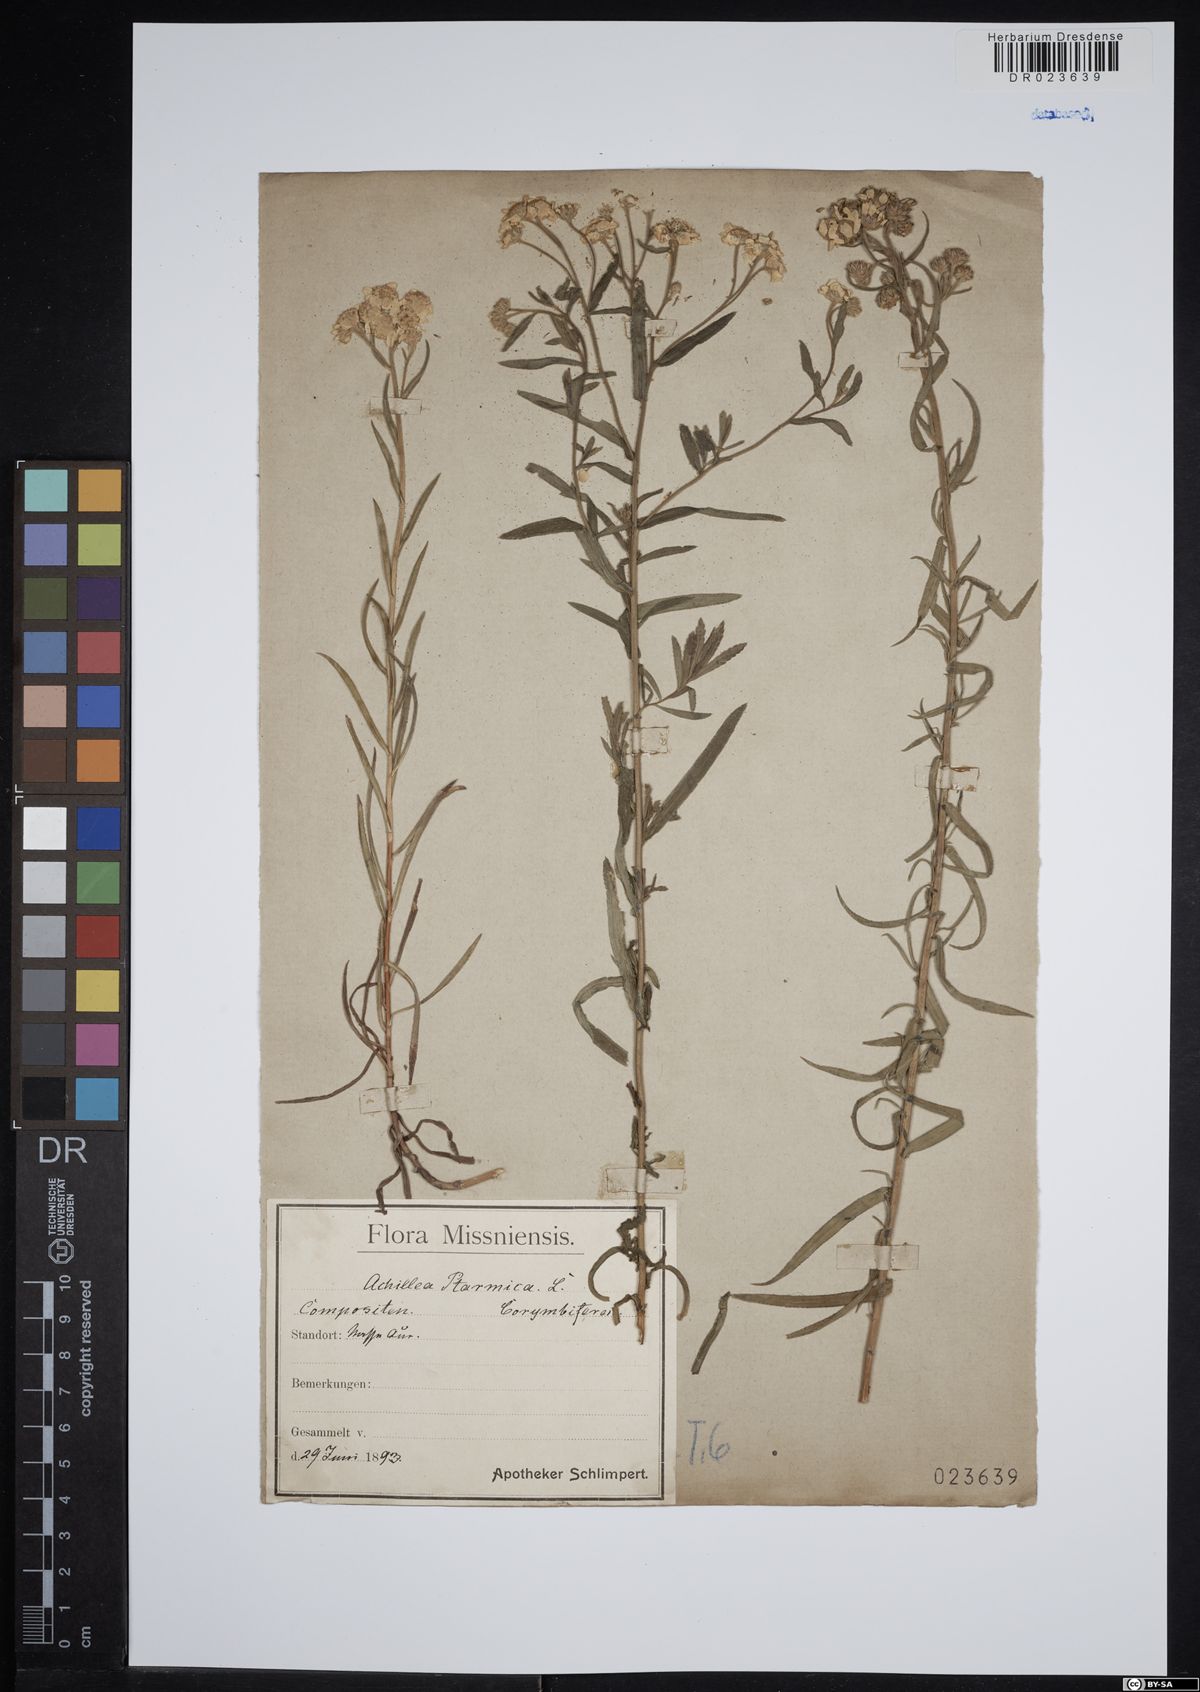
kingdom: Plantae
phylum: Tracheophyta
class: Magnoliopsida
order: Asterales
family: Asteraceae
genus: Achillea
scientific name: Achillea ptarmica
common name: Sneezeweed
